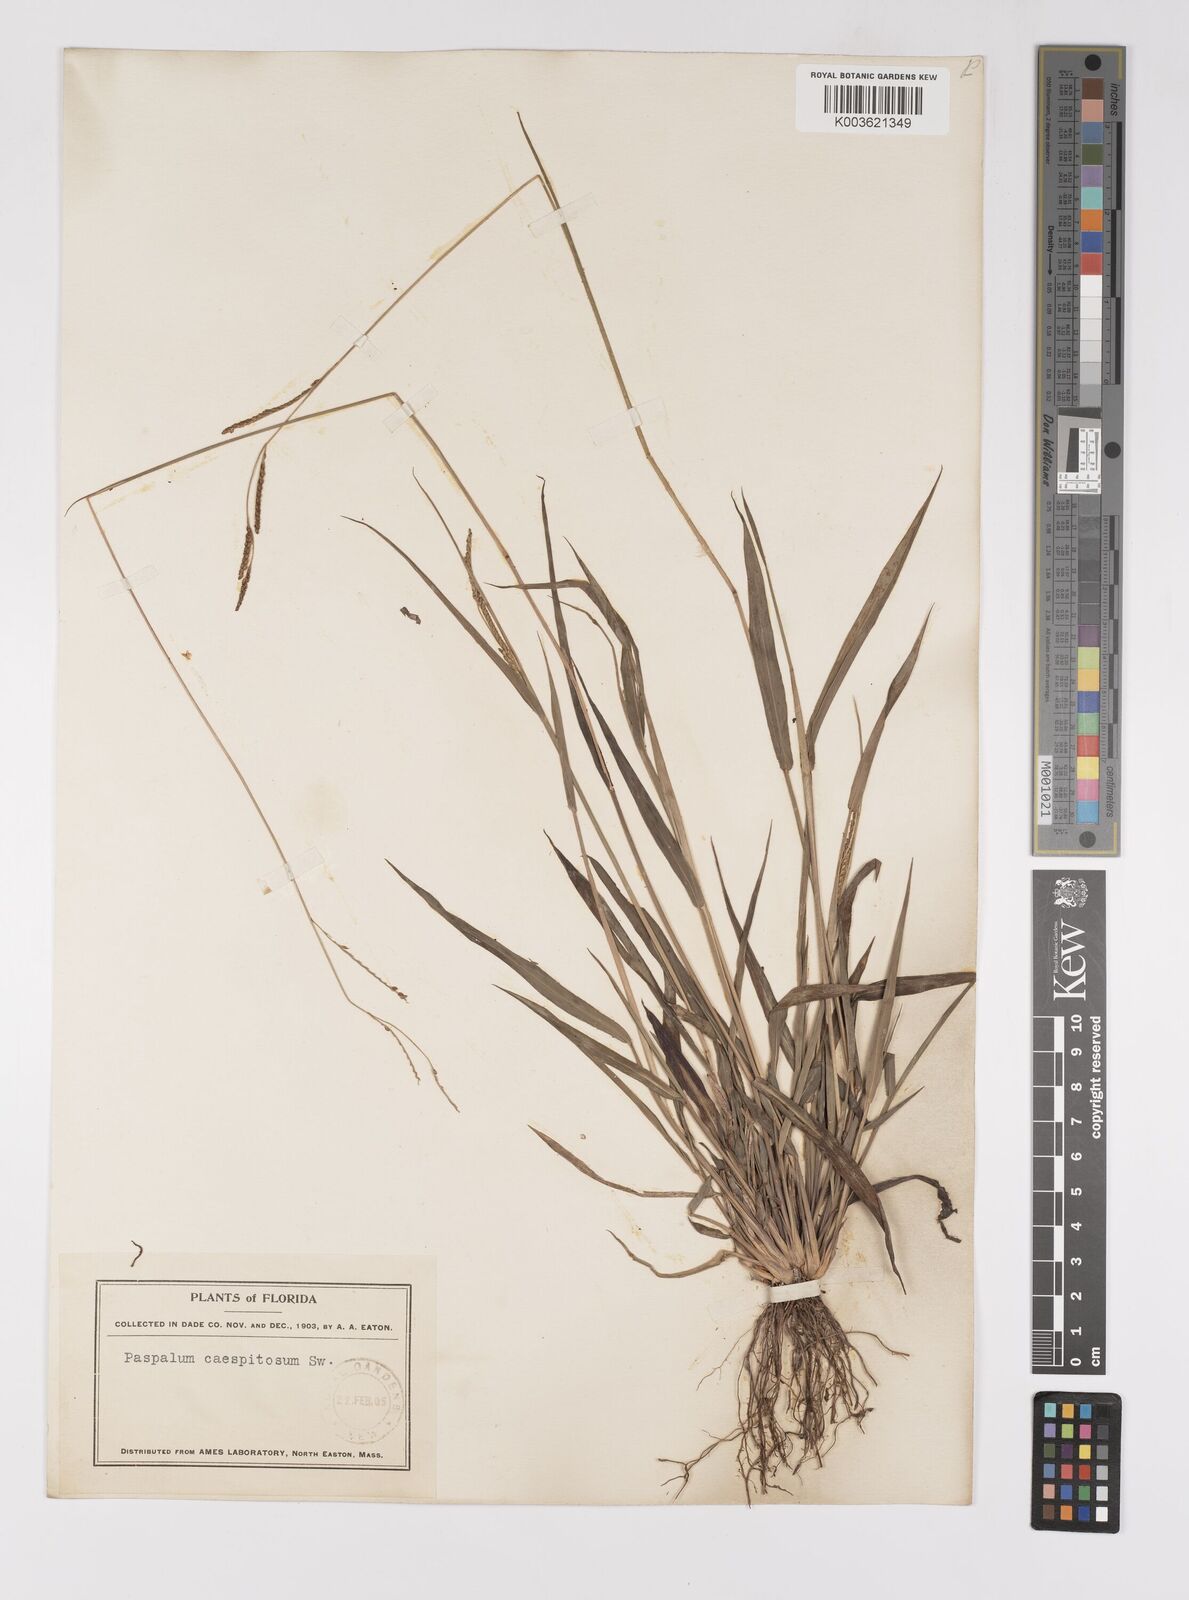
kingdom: Plantae
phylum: Tracheophyta
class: Liliopsida
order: Poales
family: Poaceae
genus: Paspalum
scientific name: Paspalum caespitosum
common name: Blue crowngrass
